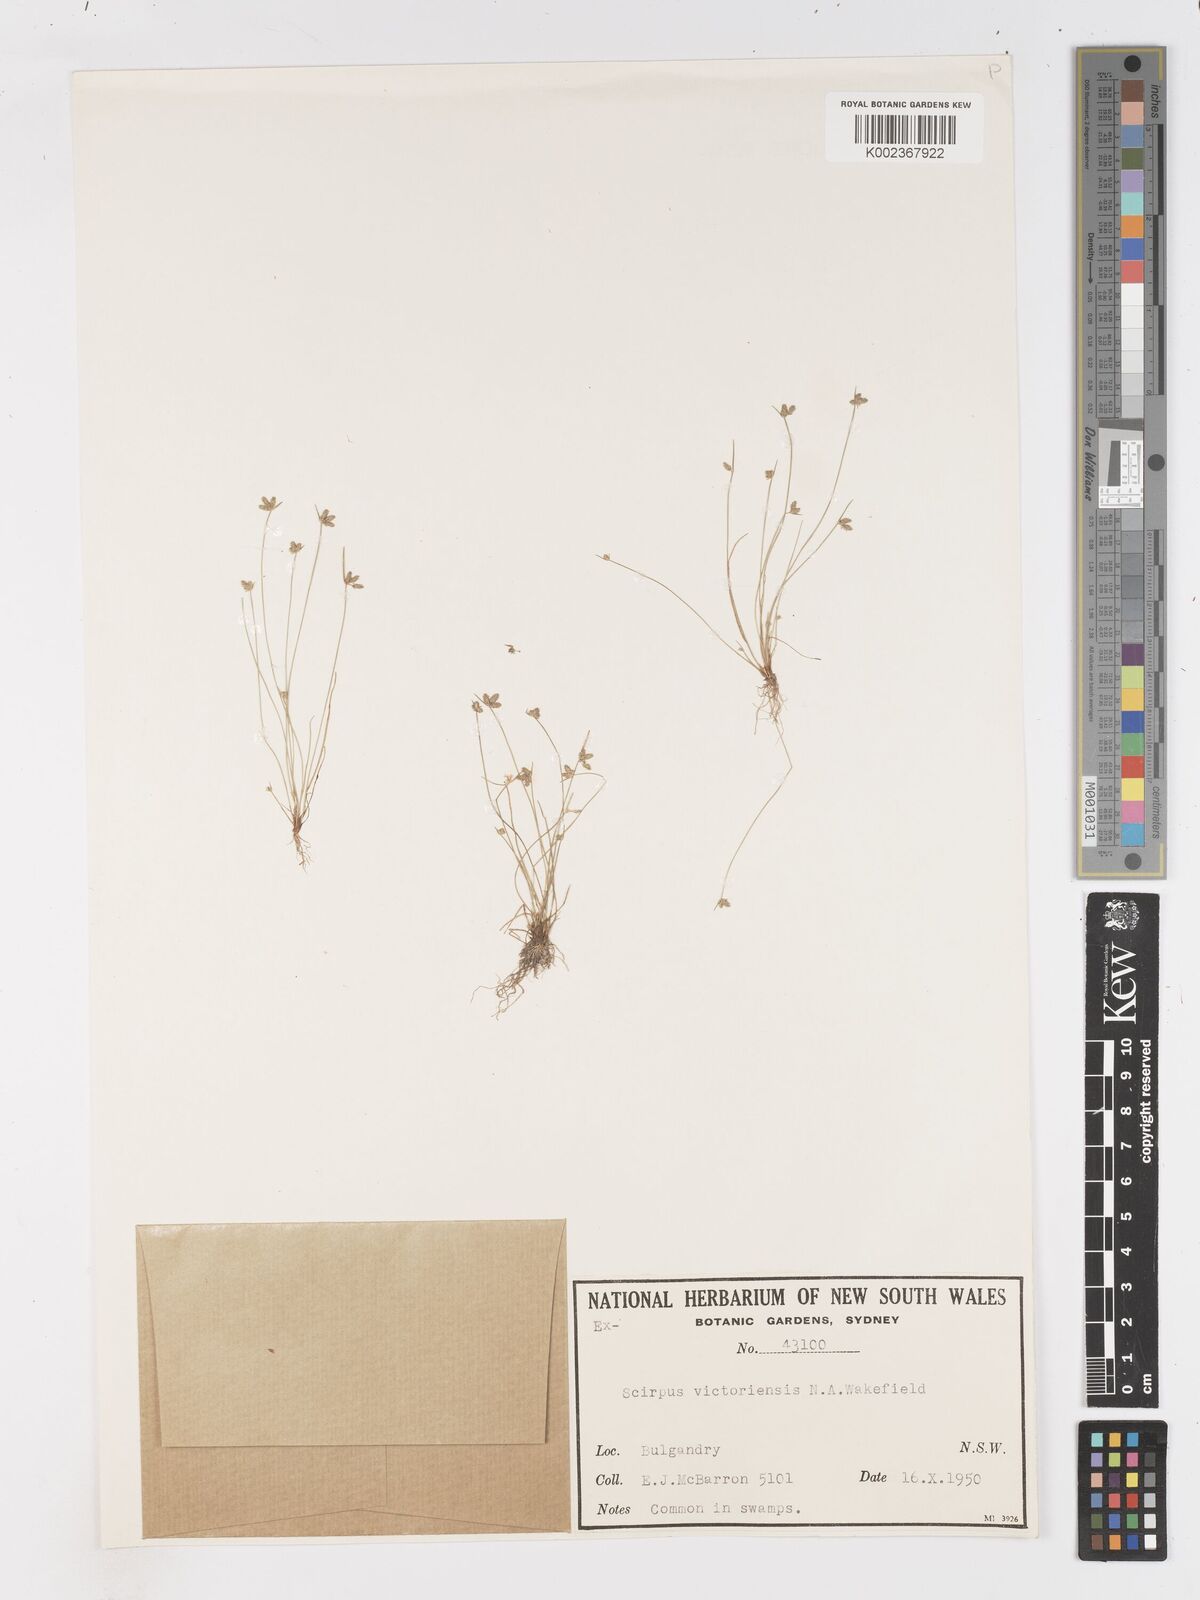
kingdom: Plantae
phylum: Tracheophyta
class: Liliopsida
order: Poales
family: Cyperaceae
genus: Isolepis
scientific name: Isolepis victoriensis
